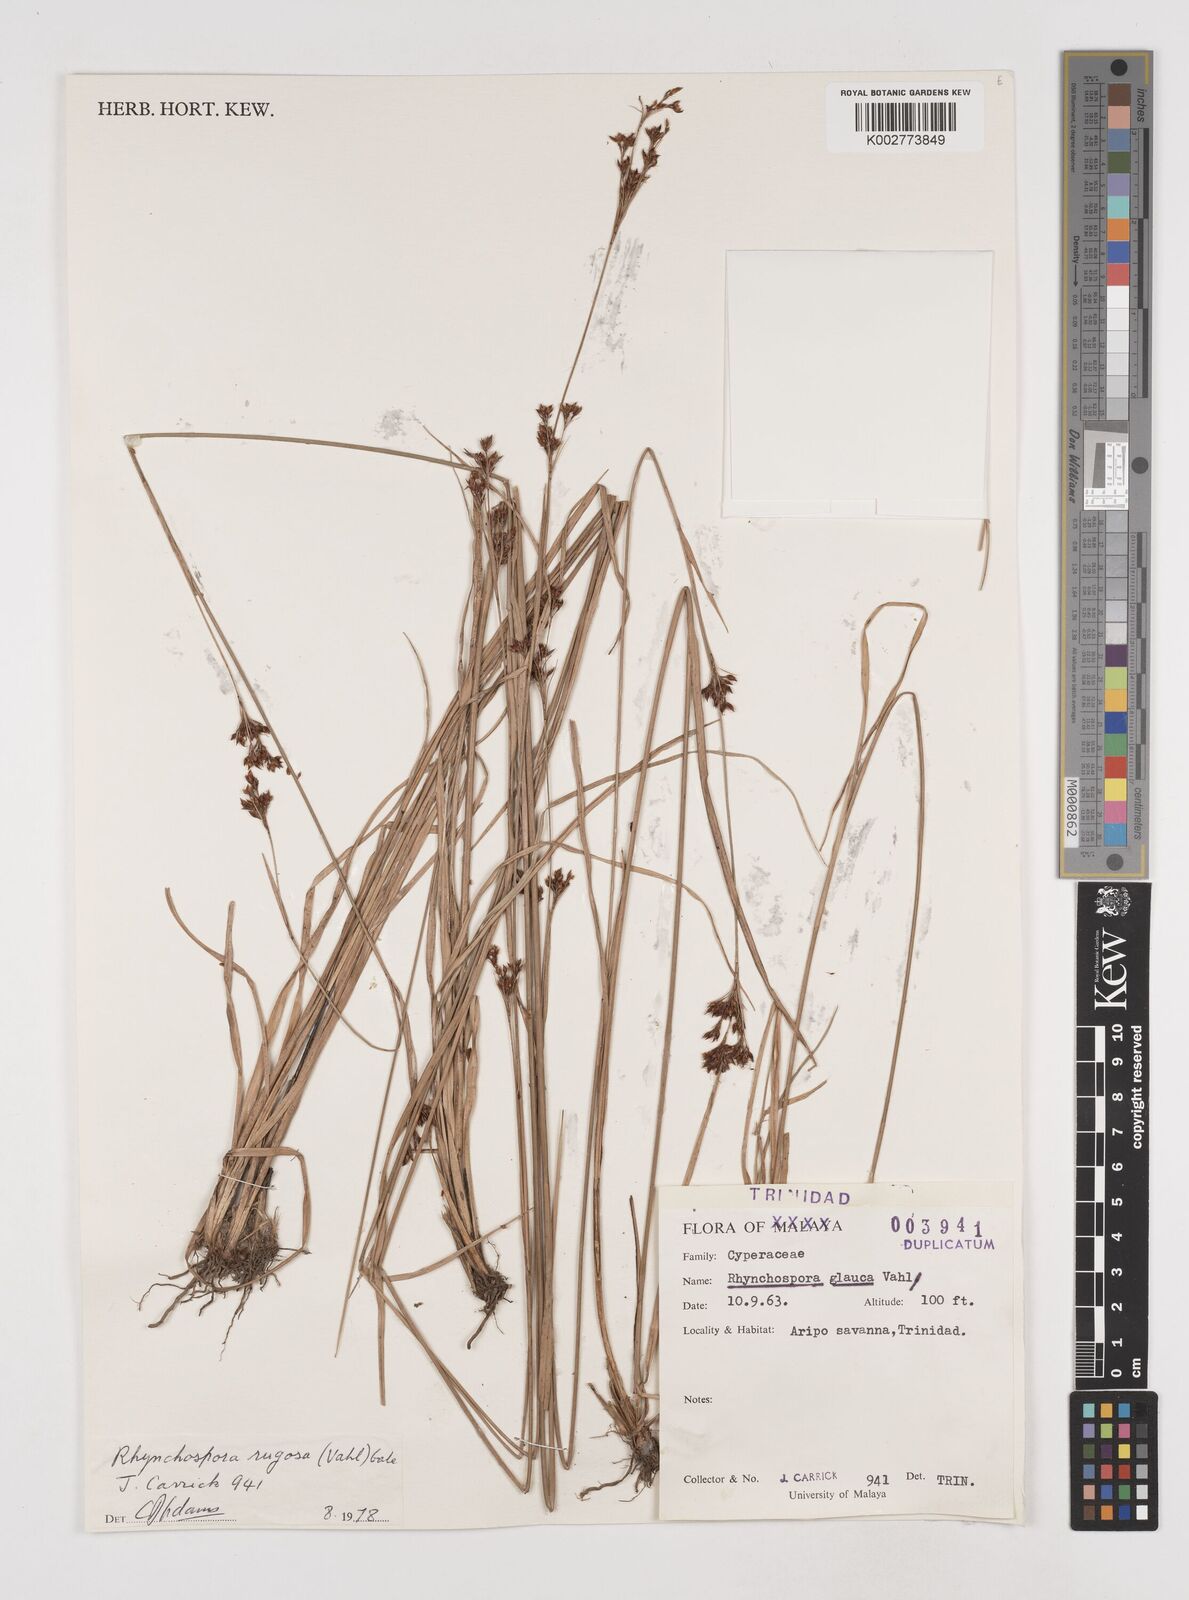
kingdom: Plantae
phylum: Tracheophyta
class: Liliopsida
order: Poales
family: Cyperaceae
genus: Rhynchospora
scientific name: Rhynchospora rugosa
